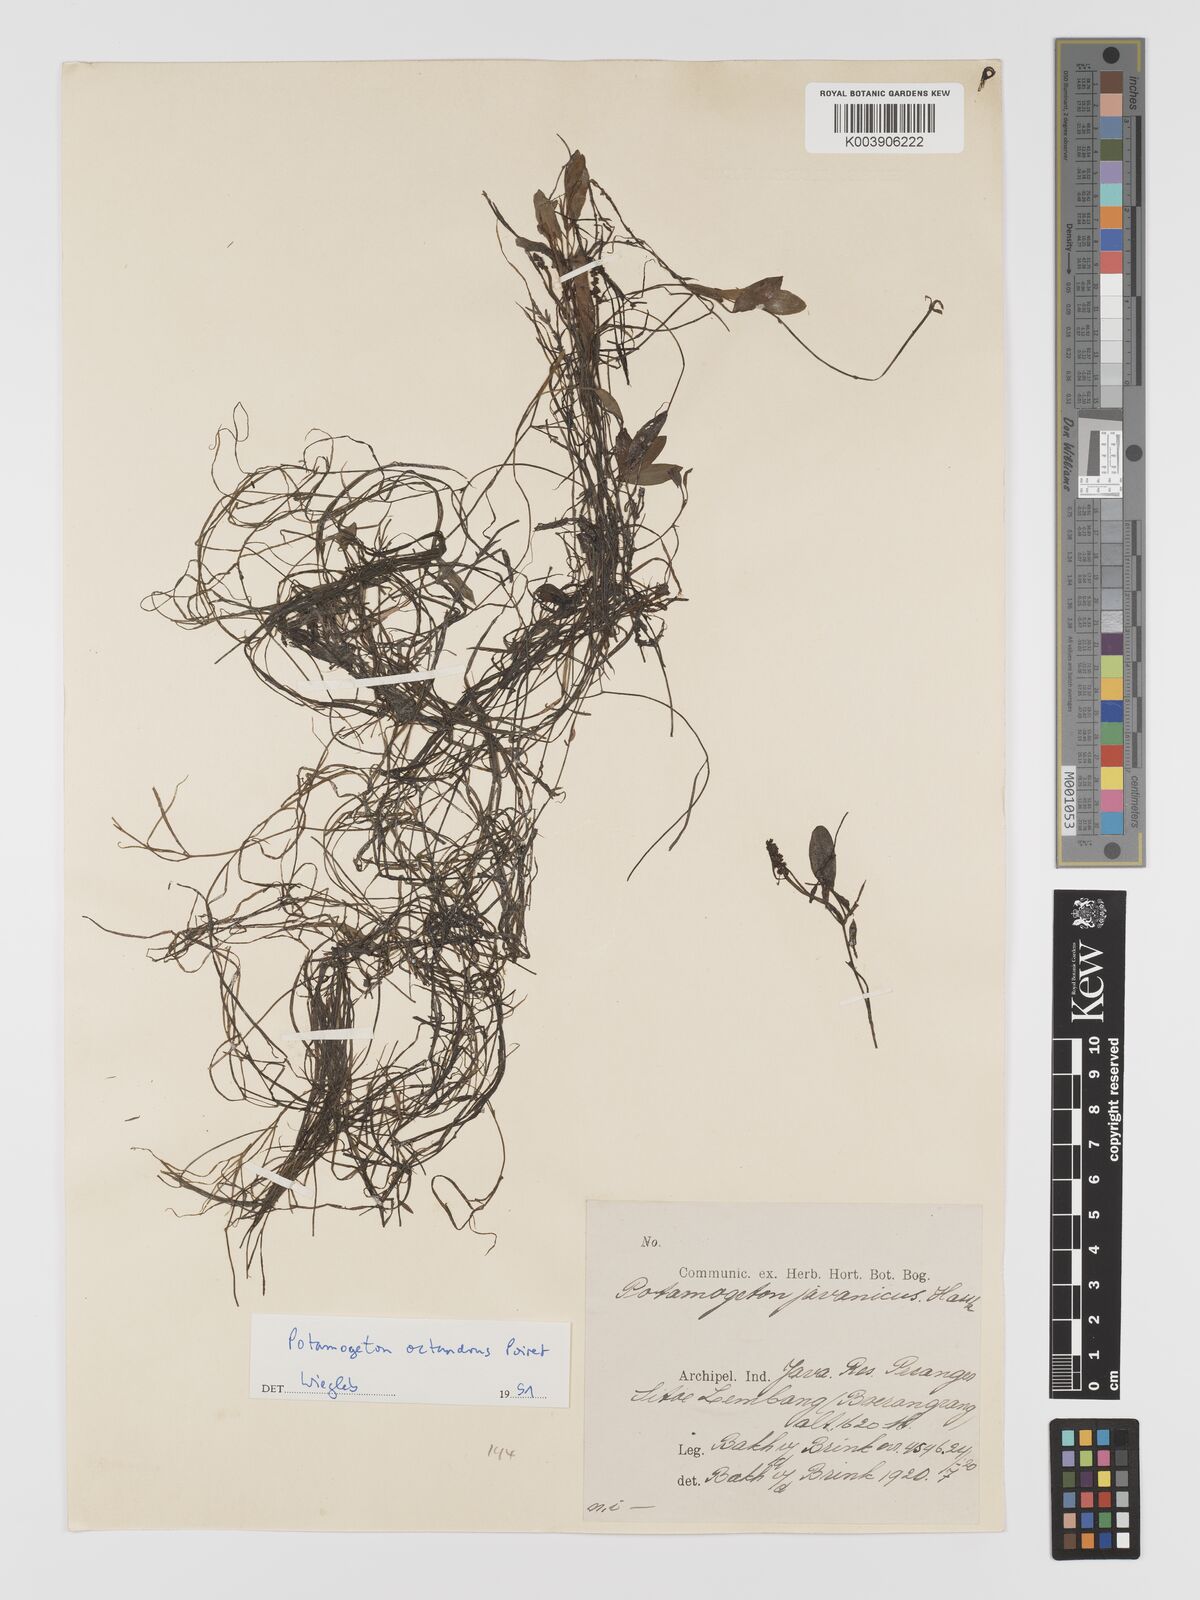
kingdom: Plantae
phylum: Tracheophyta
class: Liliopsida
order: Alismatales
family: Potamogetonaceae
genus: Potamogeton
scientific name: Potamogeton octandrus
